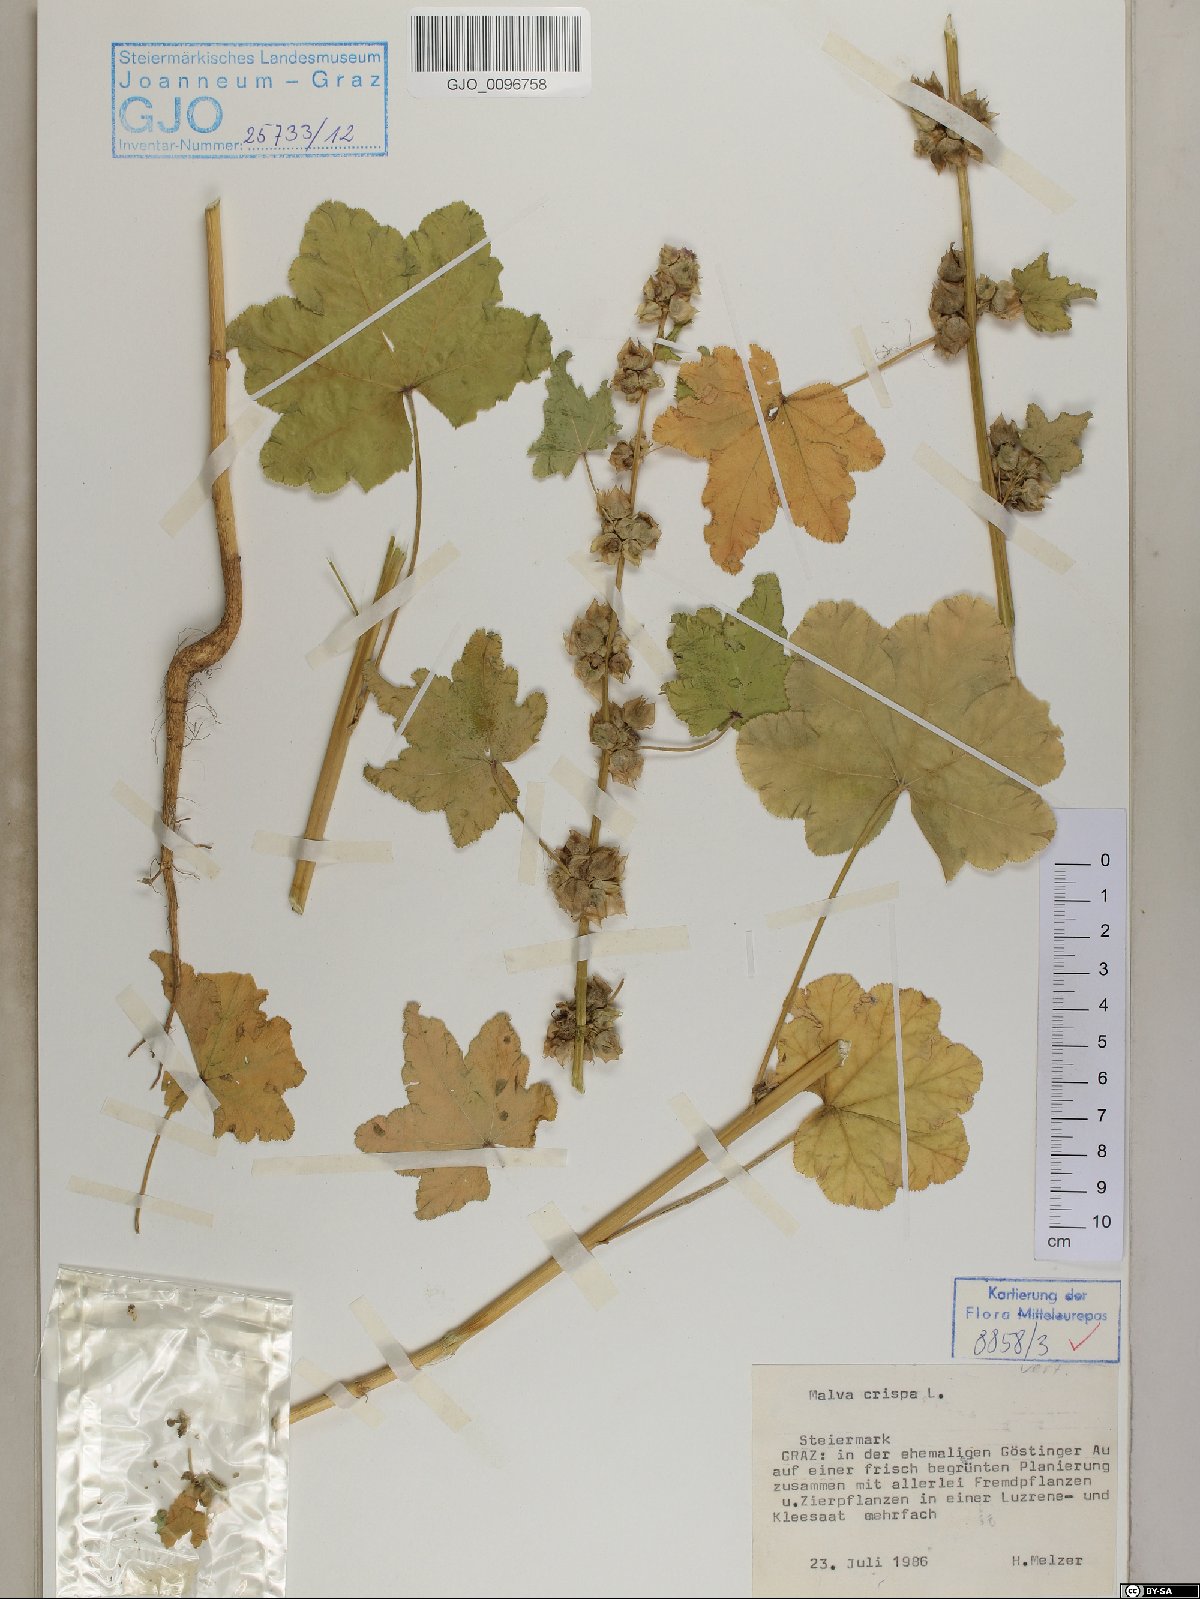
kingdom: Plantae
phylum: Tracheophyta
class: Magnoliopsida
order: Malvales
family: Malvaceae
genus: Malva
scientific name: Malva verticillata
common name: Chinese mallow
